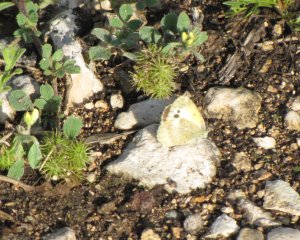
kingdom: Animalia
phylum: Arthropoda
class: Insecta
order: Lepidoptera
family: Pieridae
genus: Nathalis
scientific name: Nathalis iole
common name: Dainty Sulphur
